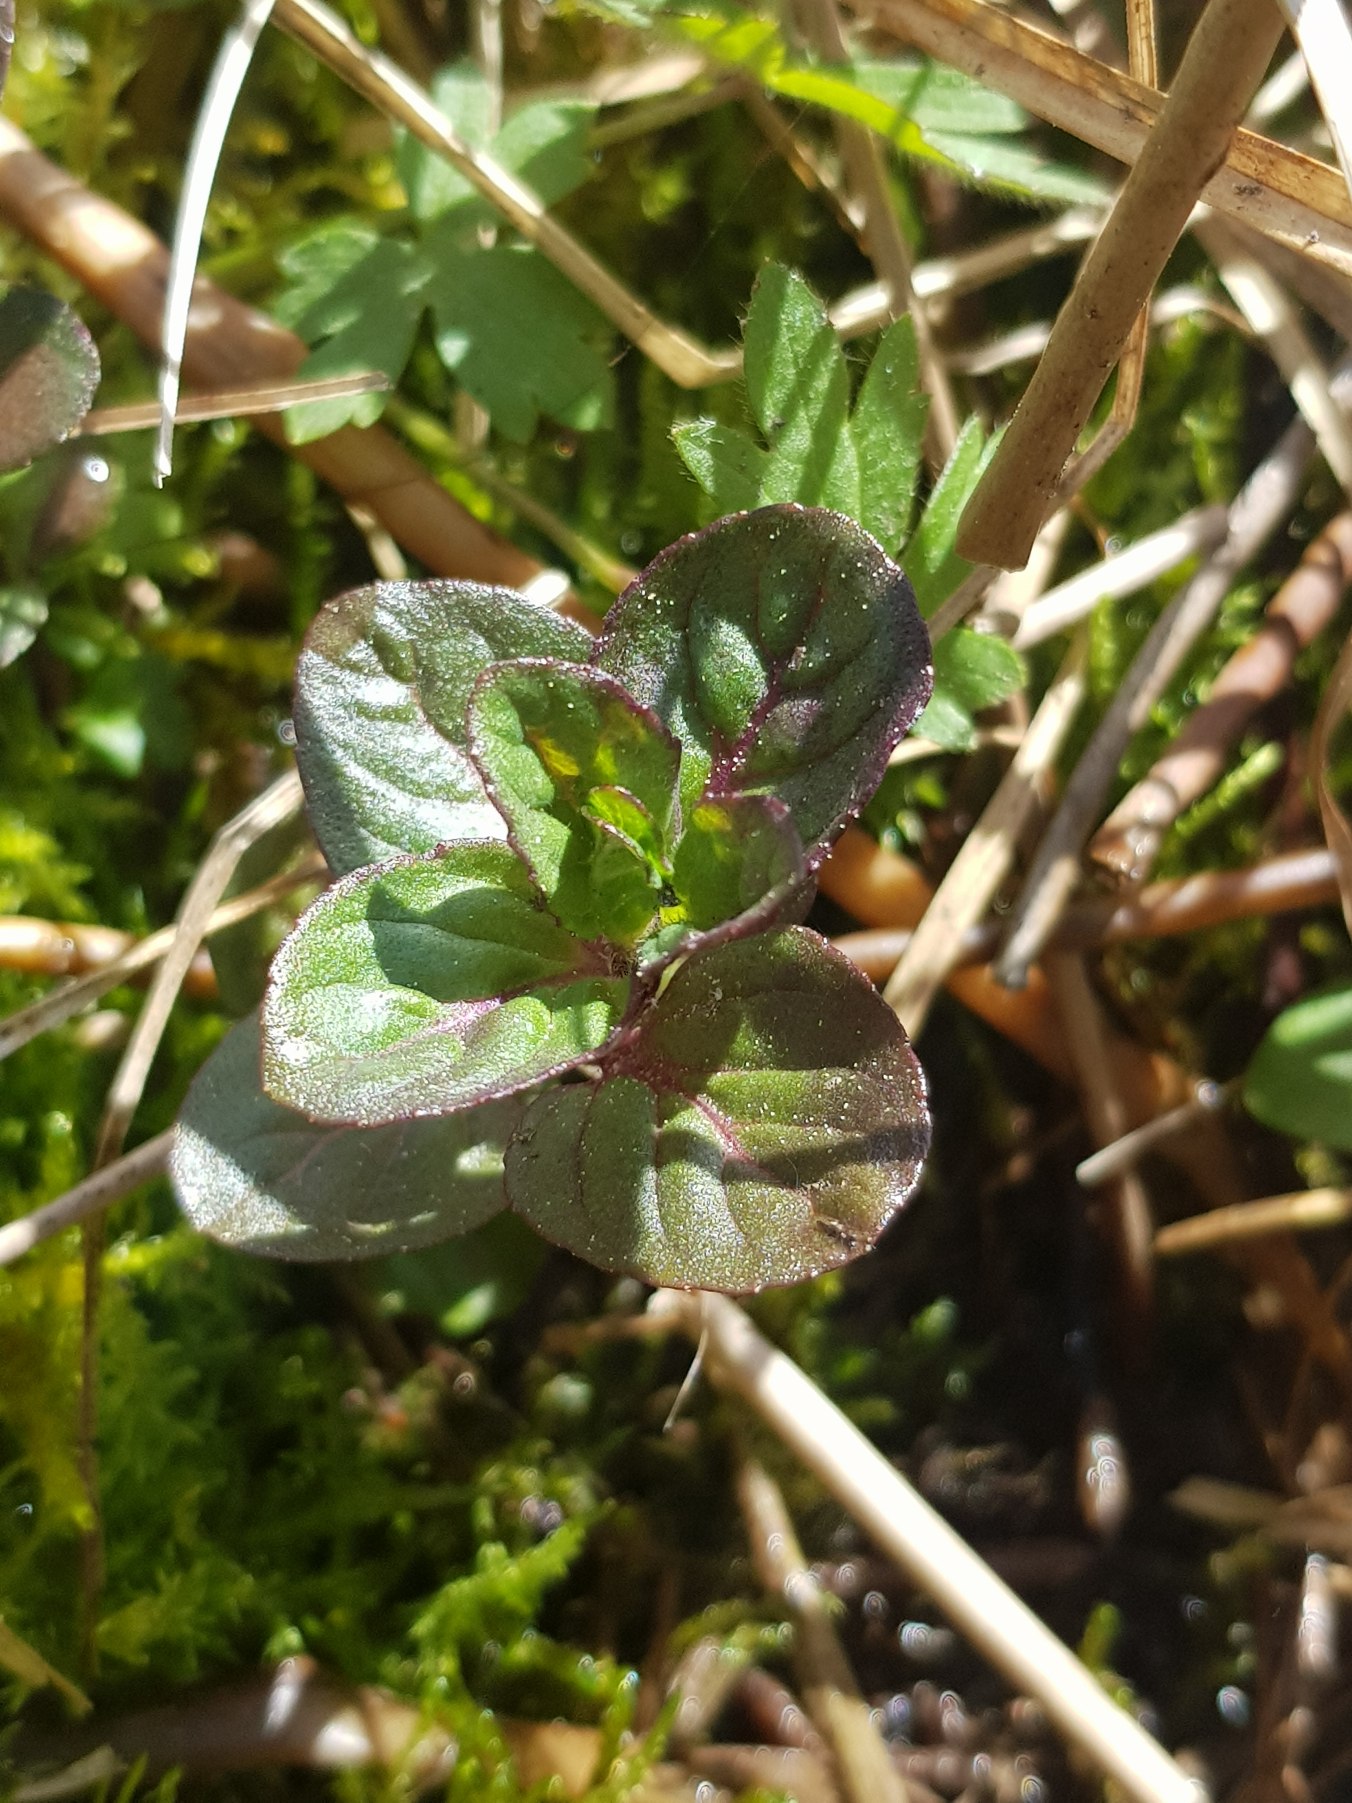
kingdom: Plantae
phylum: Tracheophyta
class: Magnoliopsida
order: Lamiales
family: Lamiaceae
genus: Mentha
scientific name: Mentha aquatica
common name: Vand-mynte
